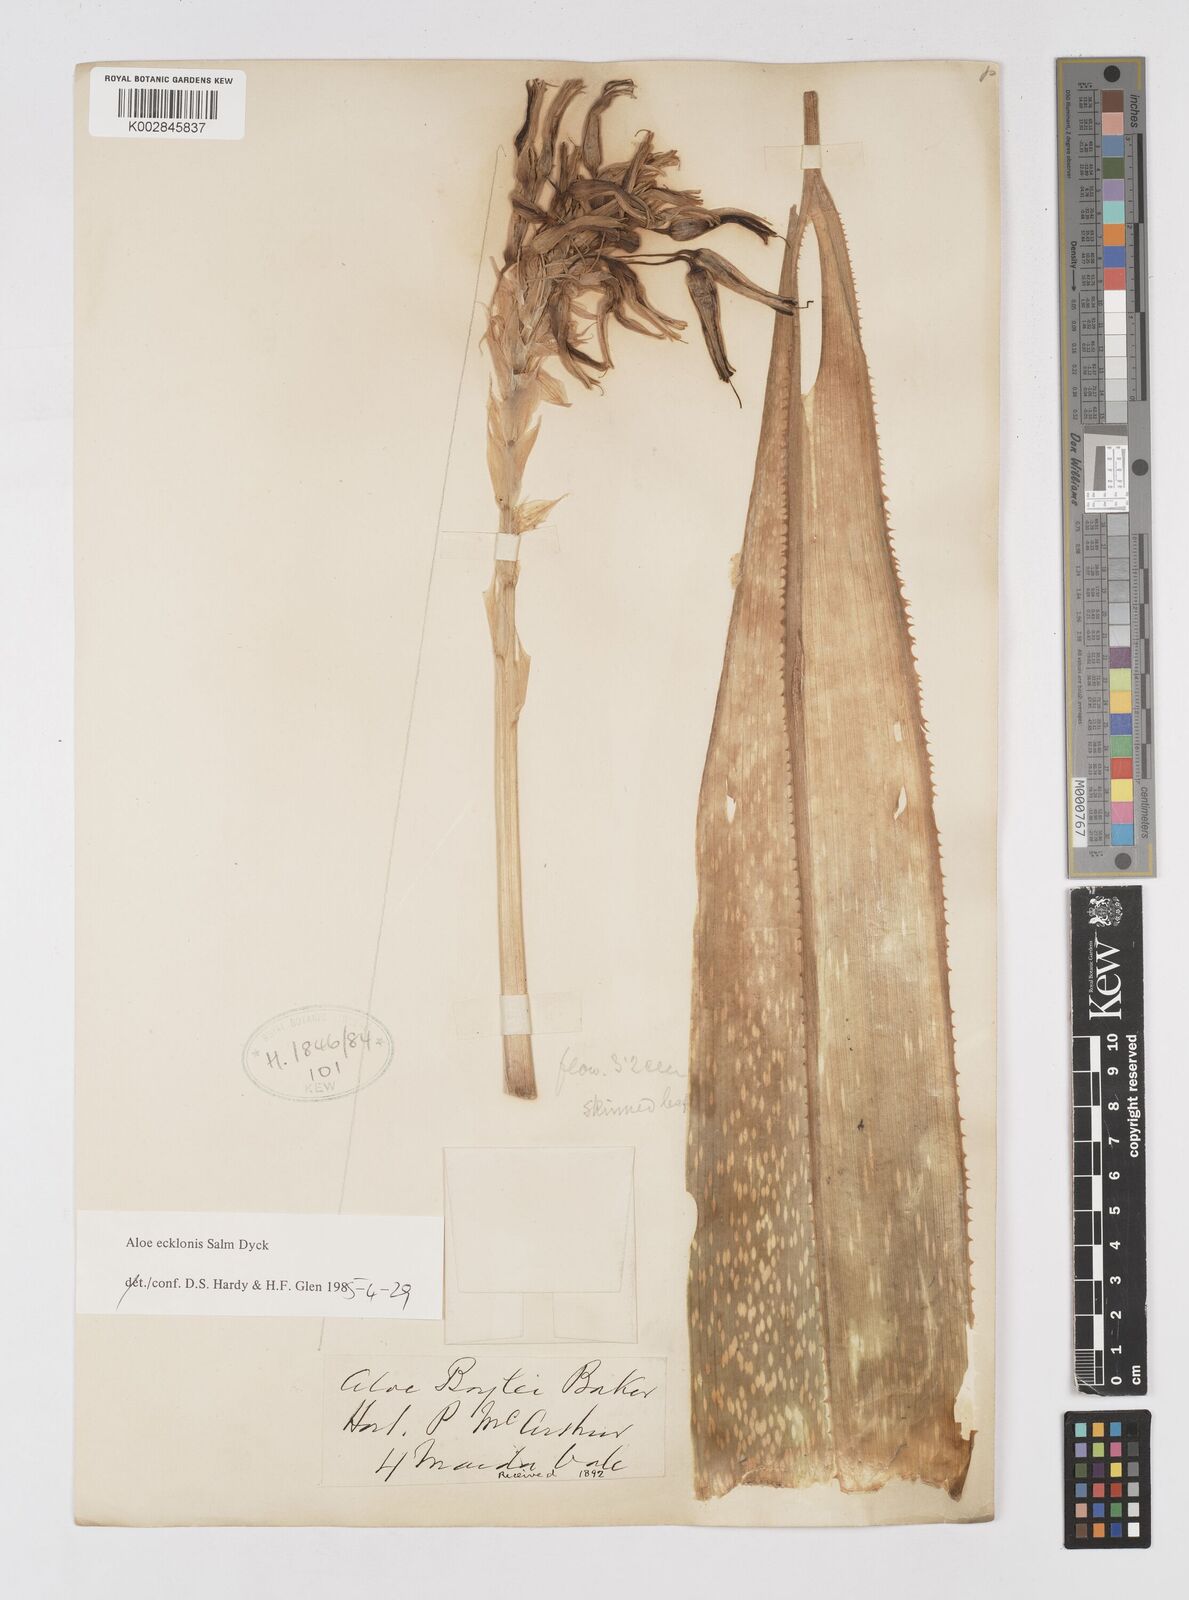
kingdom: Plantae
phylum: Tracheophyta
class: Liliopsida
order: Asparagales
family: Asphodelaceae
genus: Aloe
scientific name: Aloe ecklonis
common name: Ecklon's aloe
